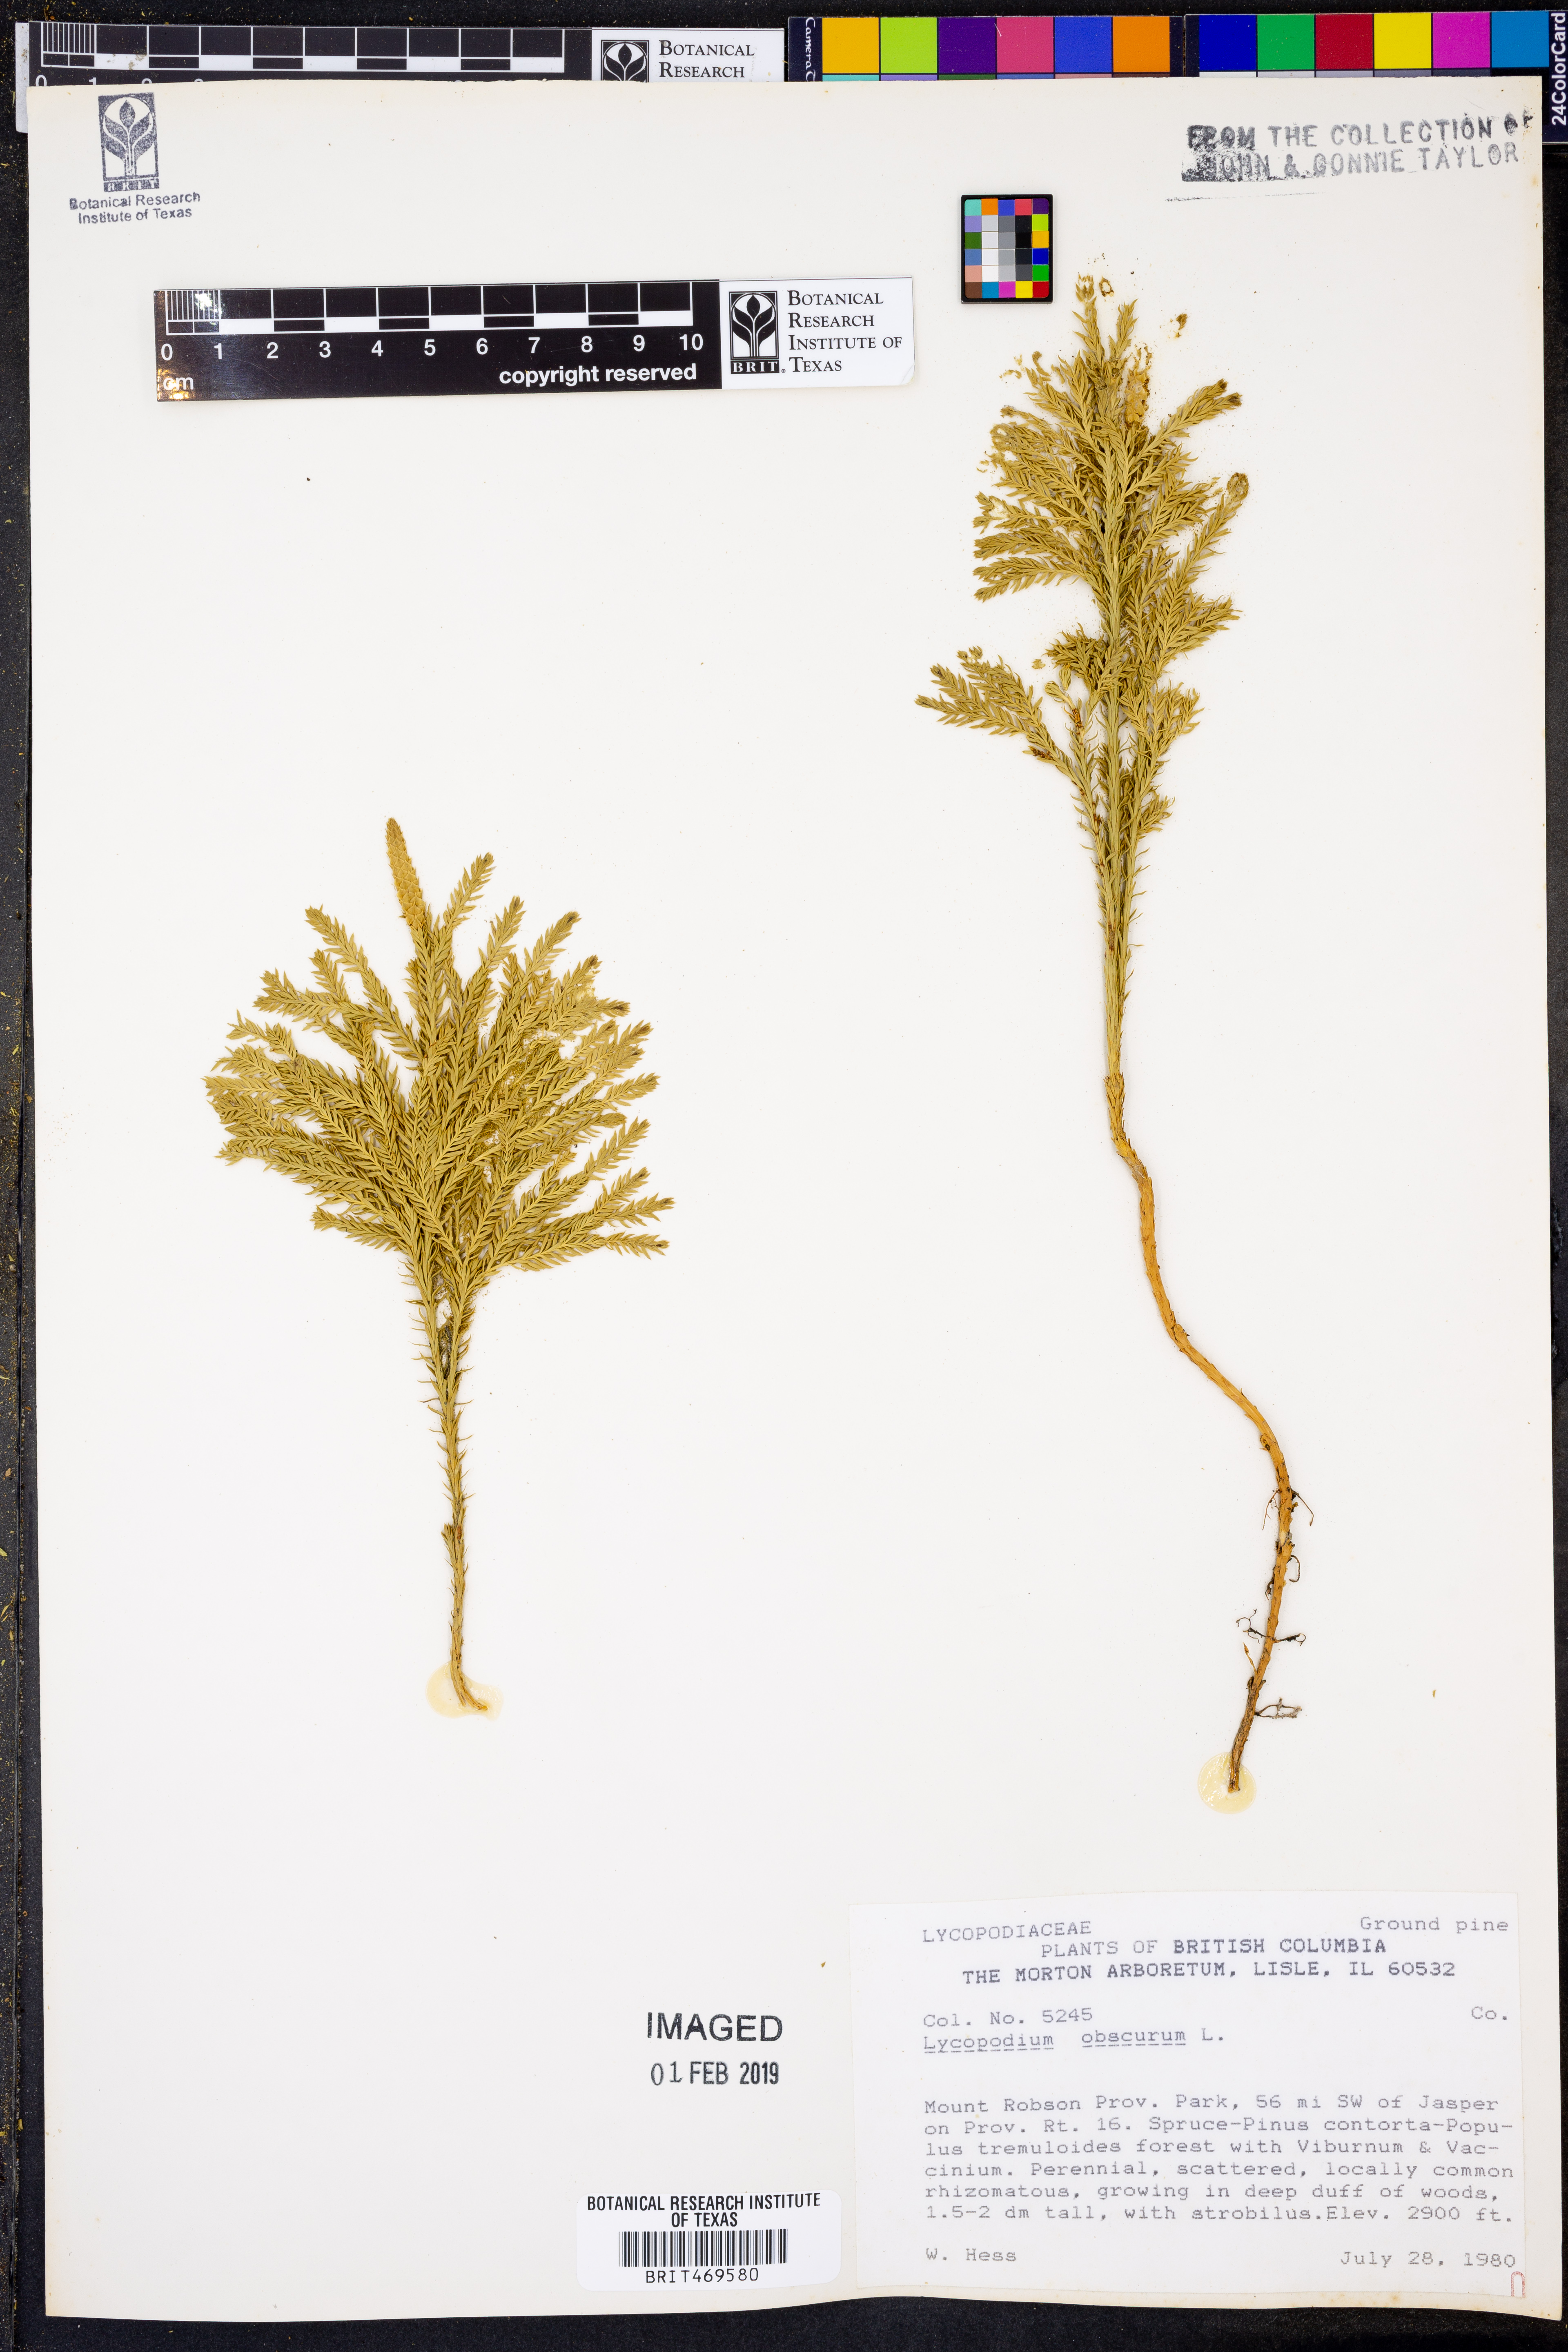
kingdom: Plantae
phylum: Tracheophyta
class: Lycopodiopsida
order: Lycopodiales
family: Lycopodiaceae
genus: Dendrolycopodium
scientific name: Dendrolycopodium obscurum
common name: Common ground-pine
